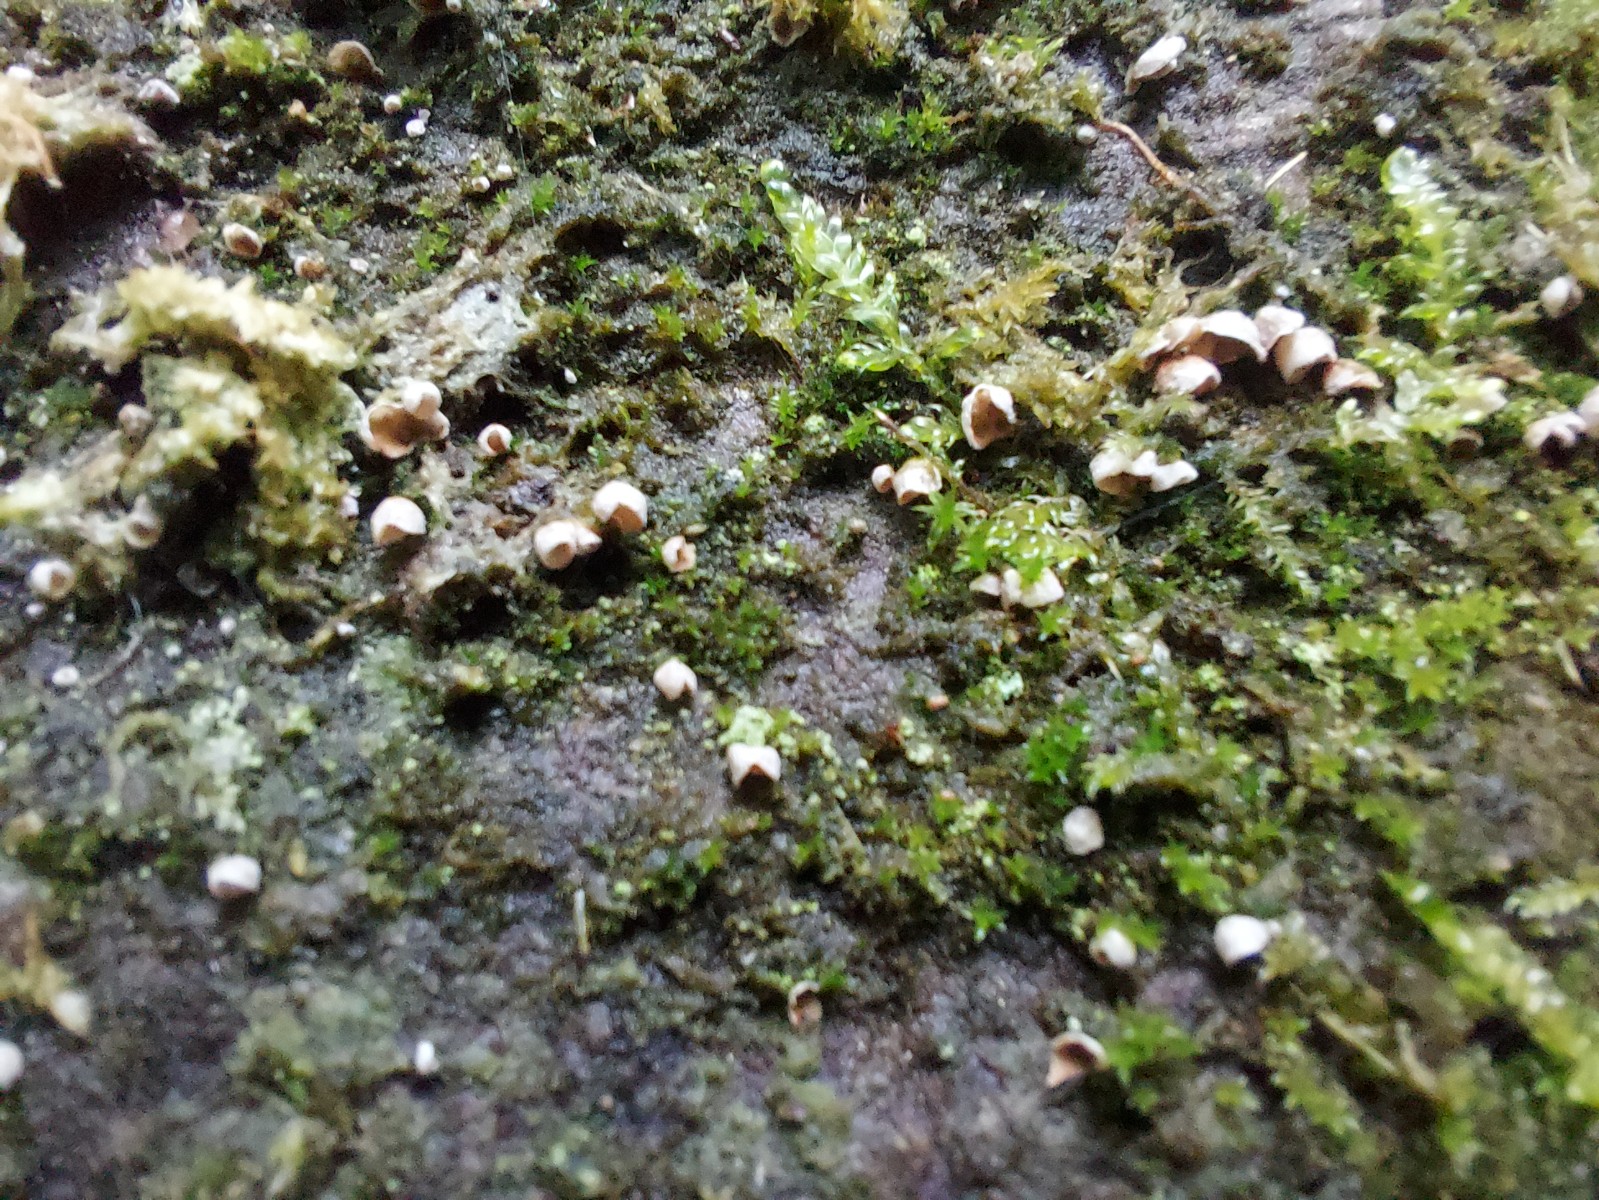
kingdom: Fungi
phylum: Basidiomycota
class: Agaricomycetes
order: Agaricales
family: Chromocyphellaceae
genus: Chromocyphella
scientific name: Chromocyphella muscicola
